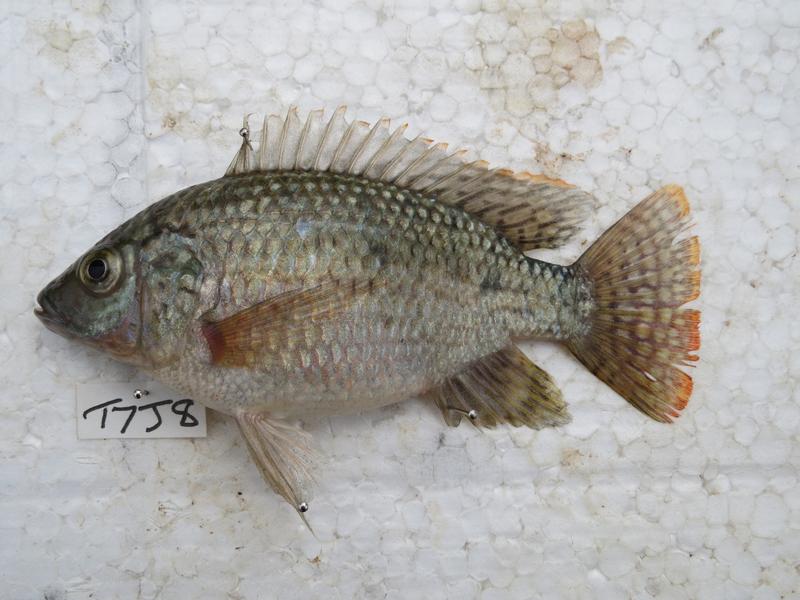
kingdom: Animalia
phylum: Chordata
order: Perciformes
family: Cichlidae
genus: Oreochromis
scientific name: Oreochromis shiranus
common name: Chilwa tilapia
